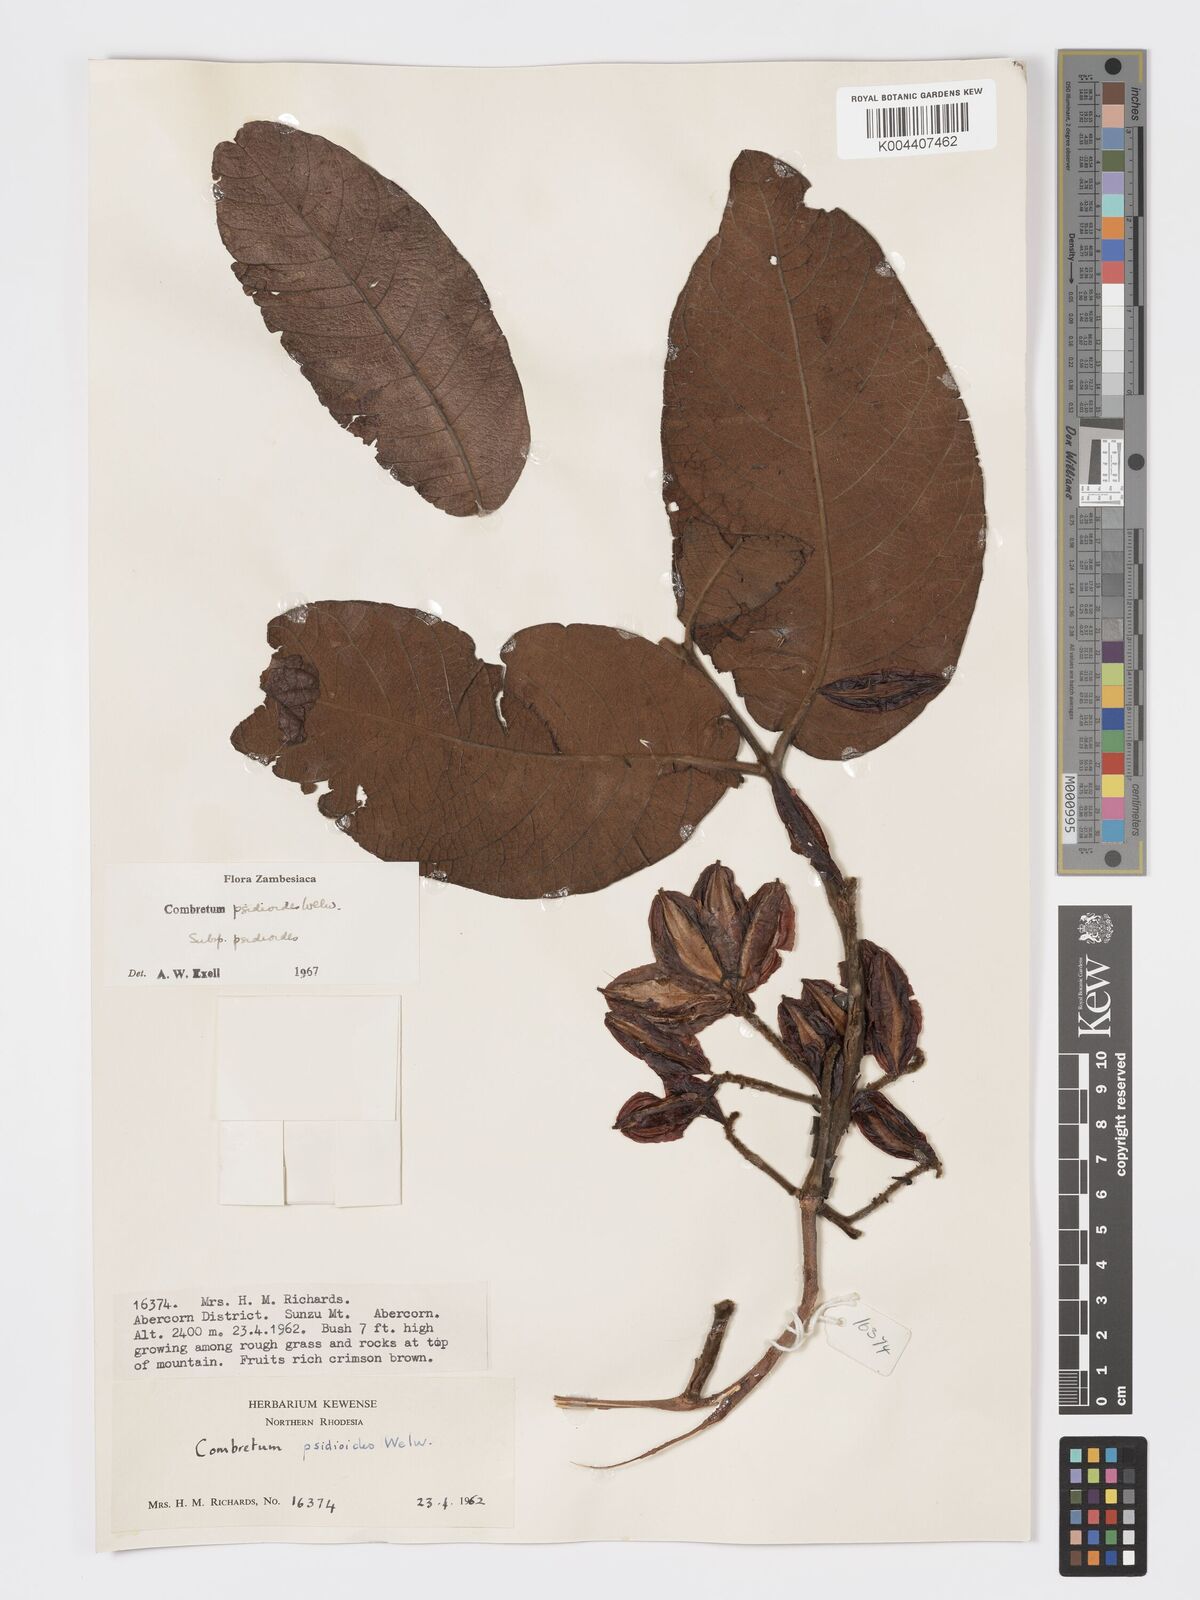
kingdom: Plantae
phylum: Tracheophyta
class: Magnoliopsida
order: Myrtales
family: Combretaceae
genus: Combretum
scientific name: Combretum psidioides
